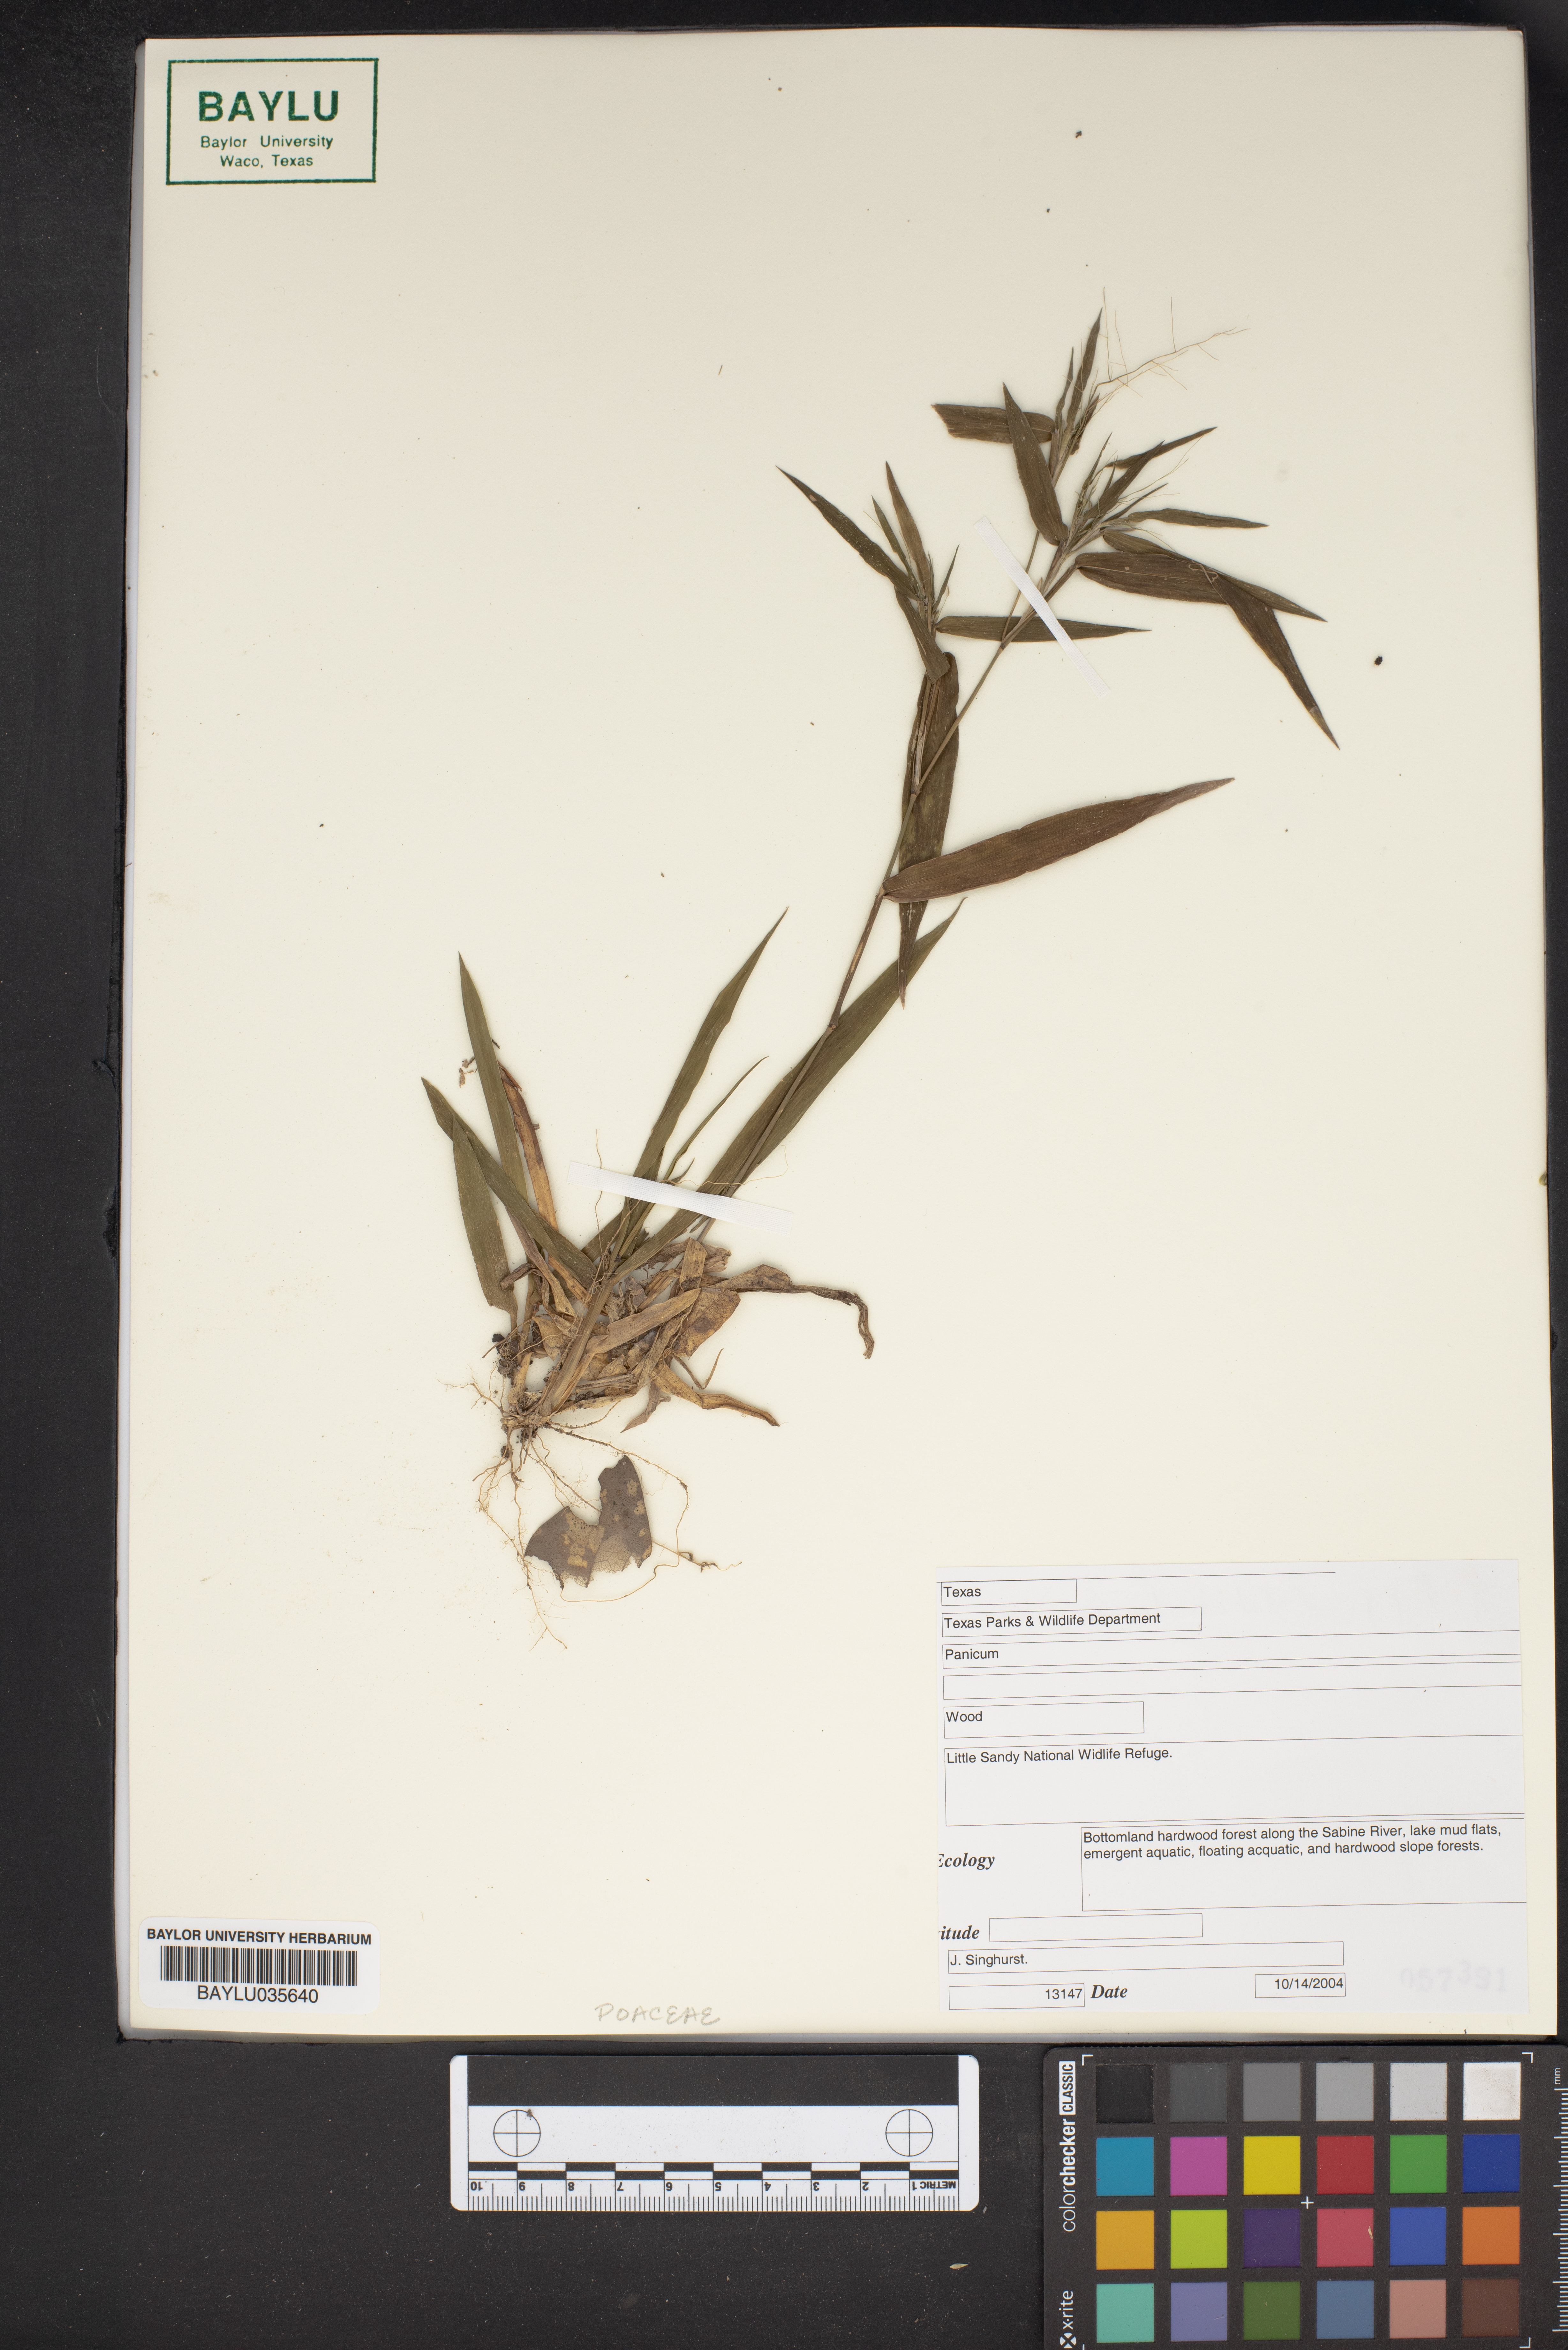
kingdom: Plantae
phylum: Tracheophyta
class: Liliopsida
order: Poales
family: Poaceae
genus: Panicum
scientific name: Panicum
